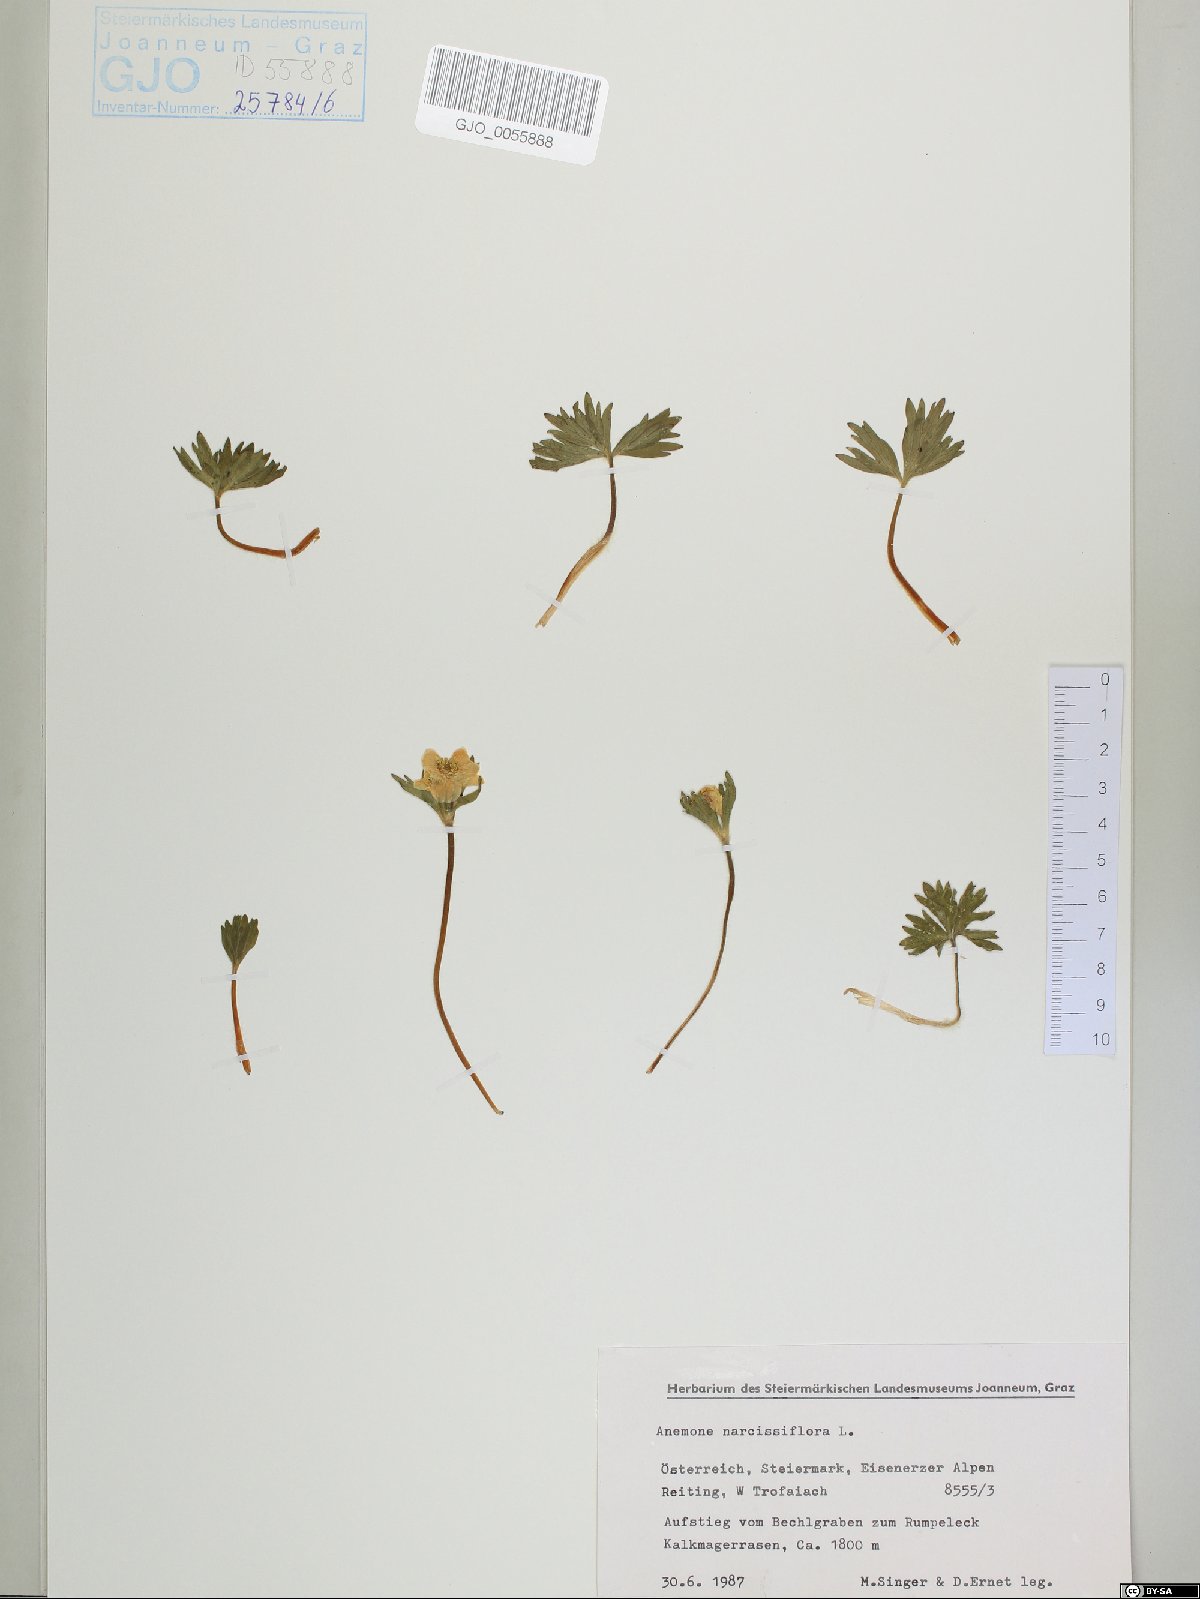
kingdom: Plantae
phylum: Tracheophyta
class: Magnoliopsida
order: Ranunculales
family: Ranunculaceae
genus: Anemonastrum
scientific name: Anemonastrum narcissiflorum
